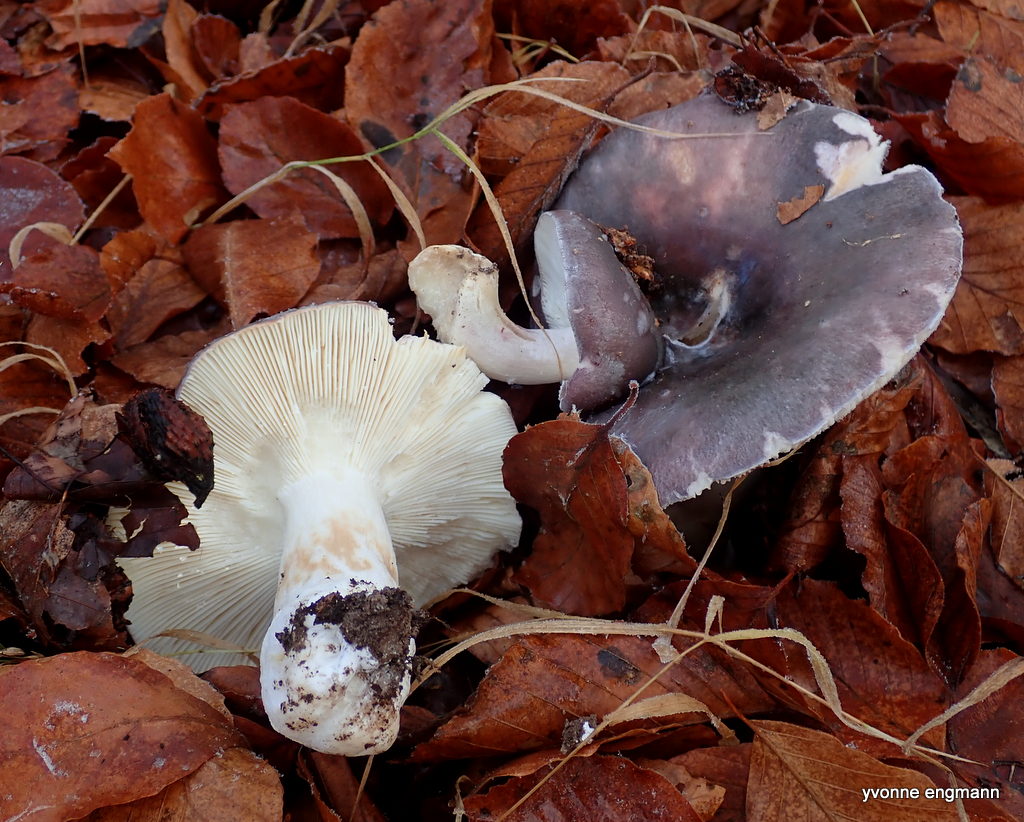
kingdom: Fungi
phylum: Basidiomycota
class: Agaricomycetes
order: Russulales
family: Russulaceae
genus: Russula
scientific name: Russula
